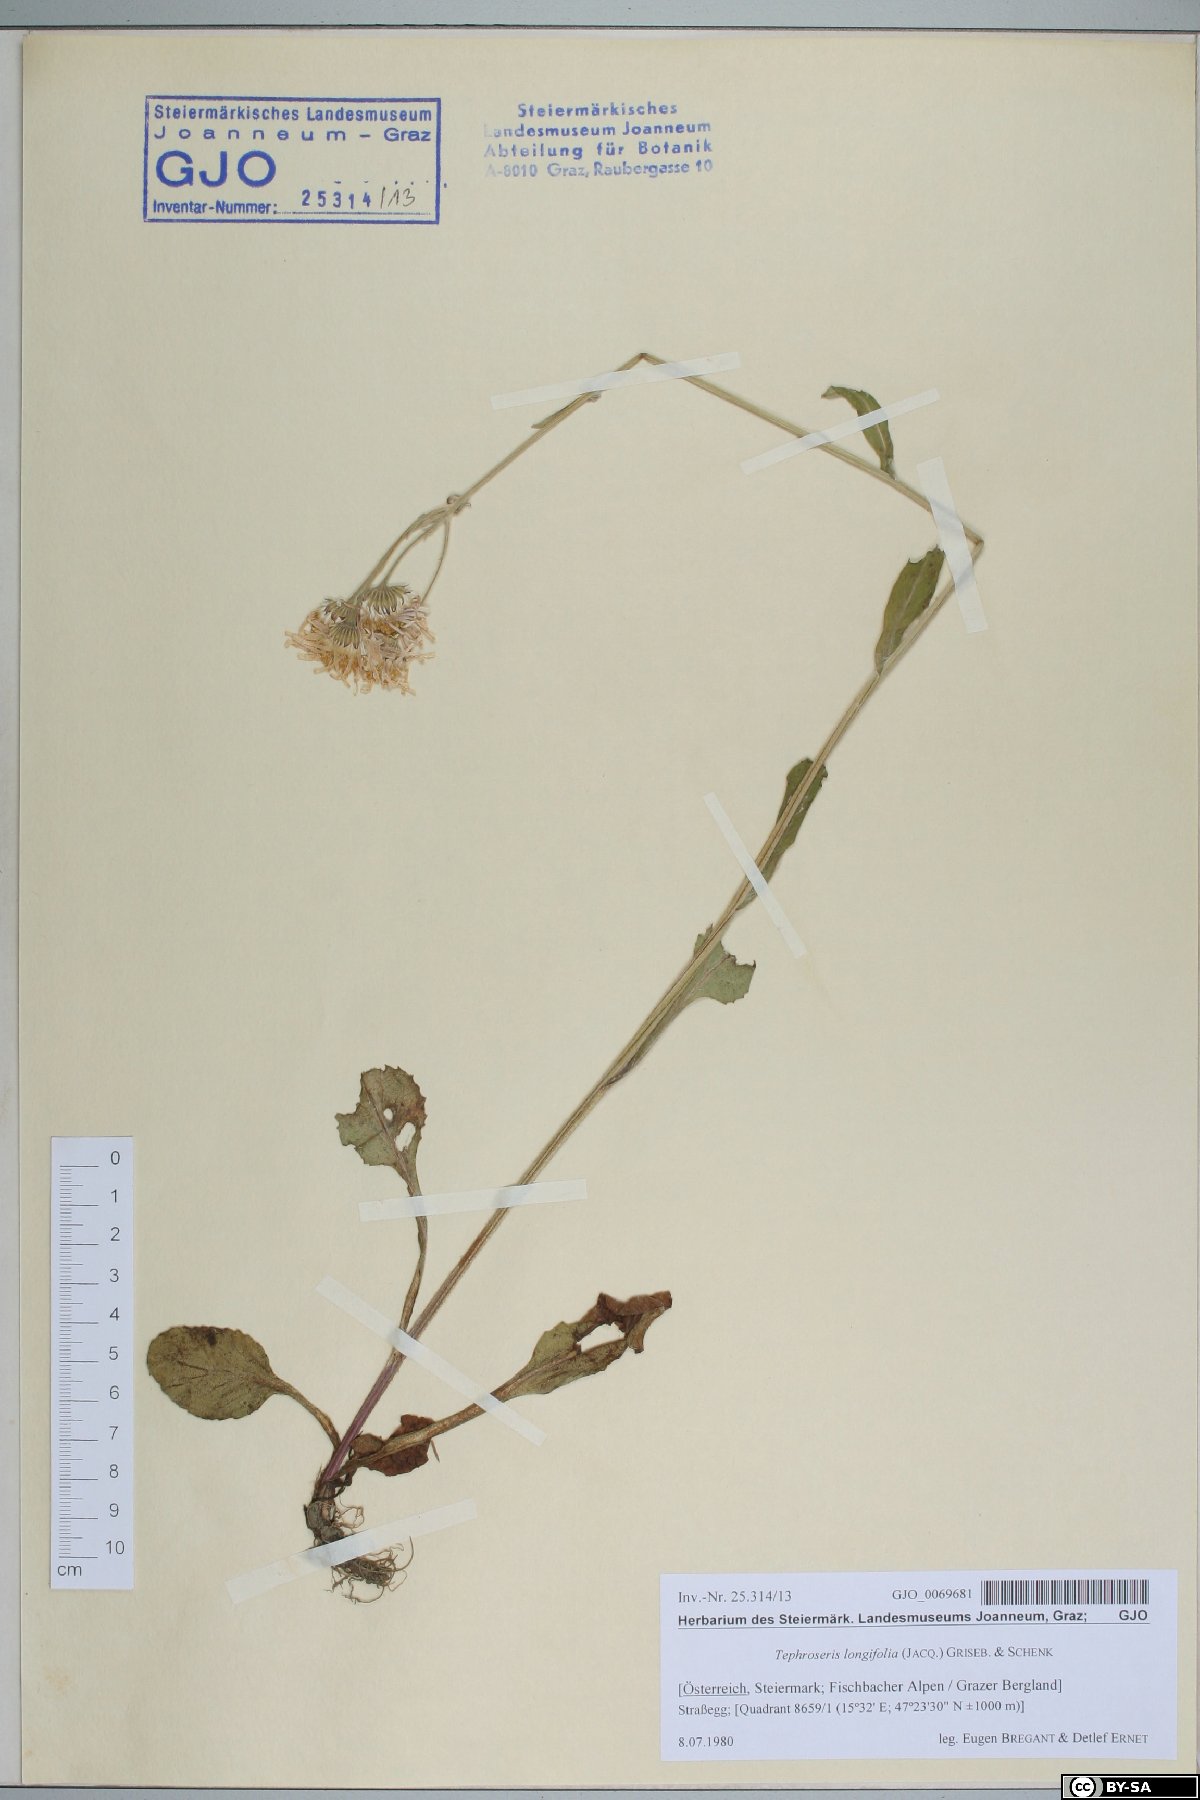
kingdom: Plantae
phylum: Tracheophyta
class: Magnoliopsida
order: Asterales
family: Asteraceae
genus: Tephroseris
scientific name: Tephroseris longifolia
